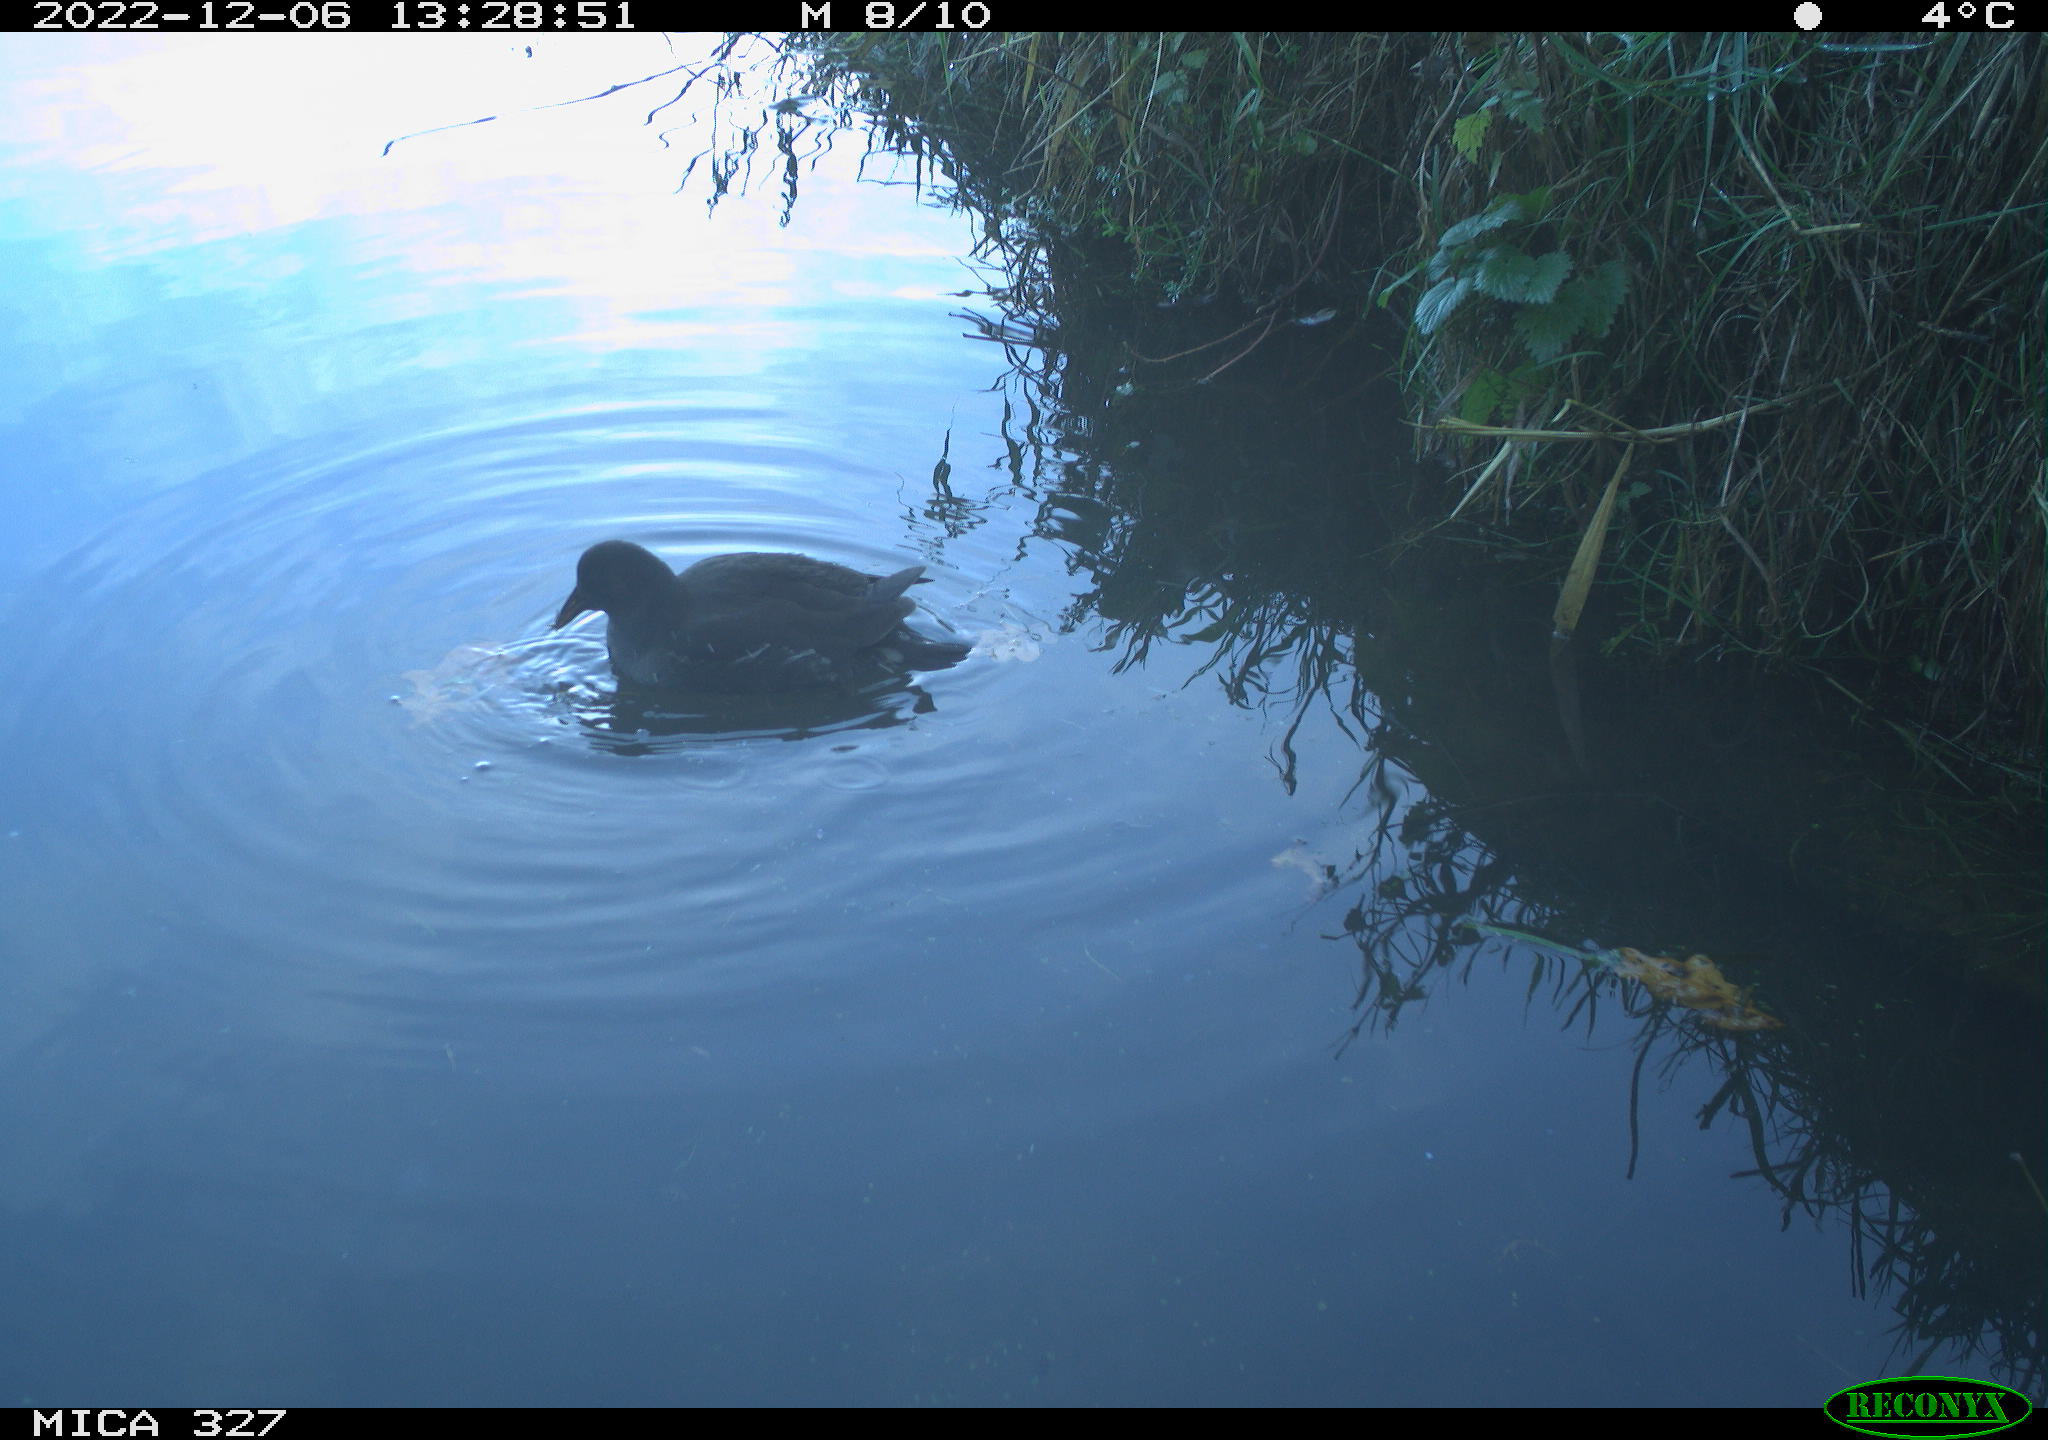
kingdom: Animalia
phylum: Chordata
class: Aves
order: Gruiformes
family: Rallidae
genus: Gallinula
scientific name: Gallinula chloropus
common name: Common moorhen
